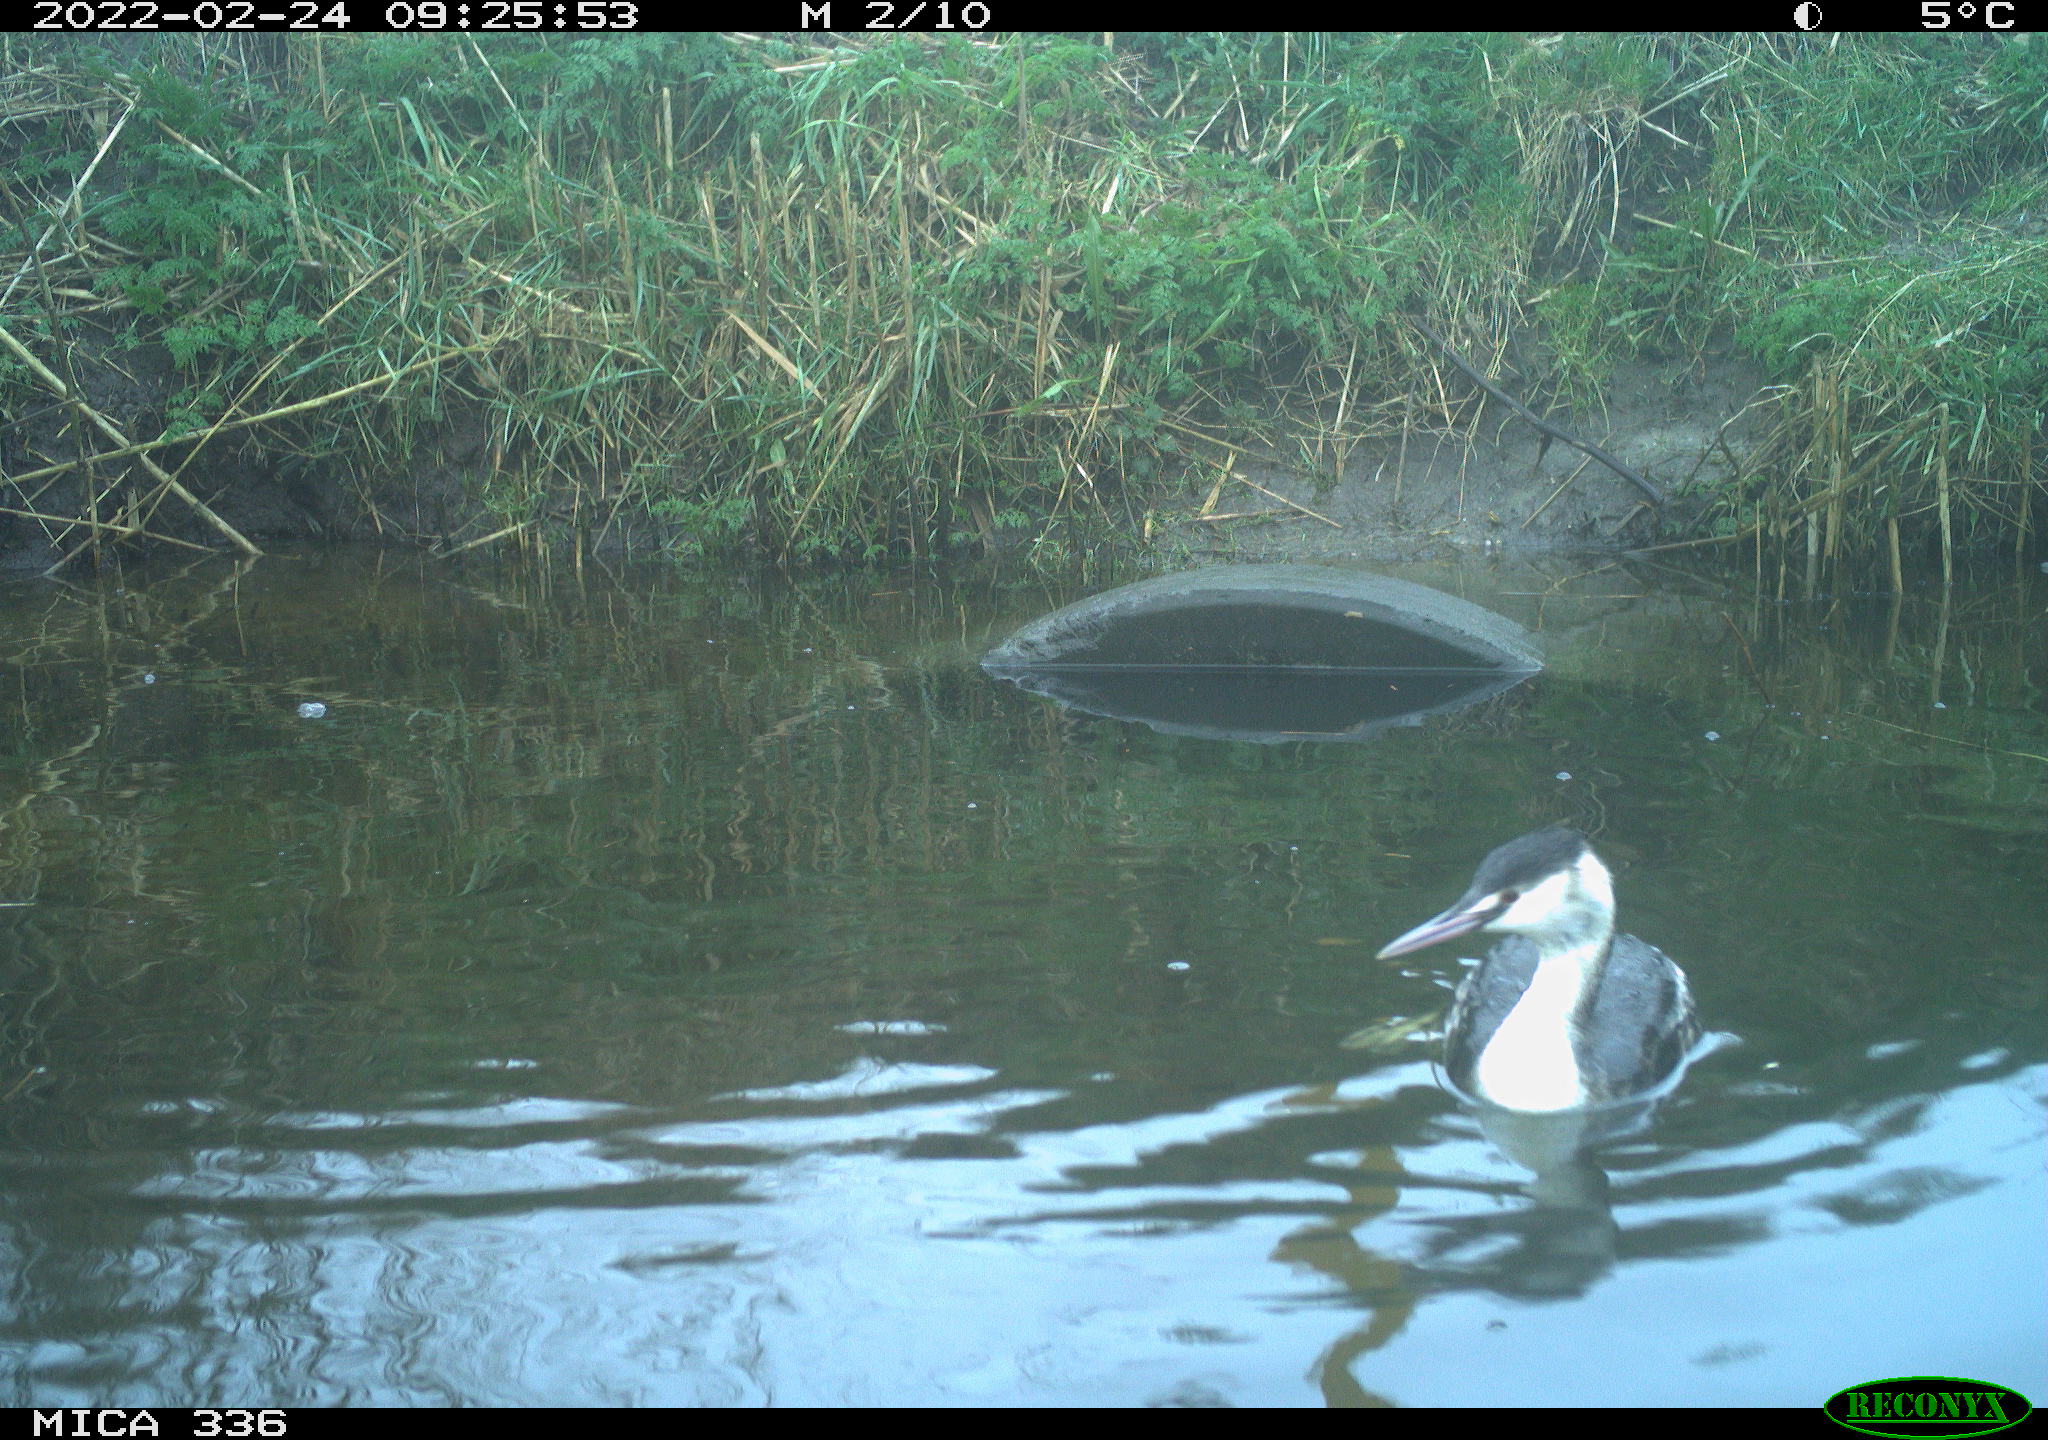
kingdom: Animalia
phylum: Chordata
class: Aves
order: Podicipediformes
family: Podicipedidae
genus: Podiceps
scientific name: Podiceps cristatus
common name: Great crested grebe
